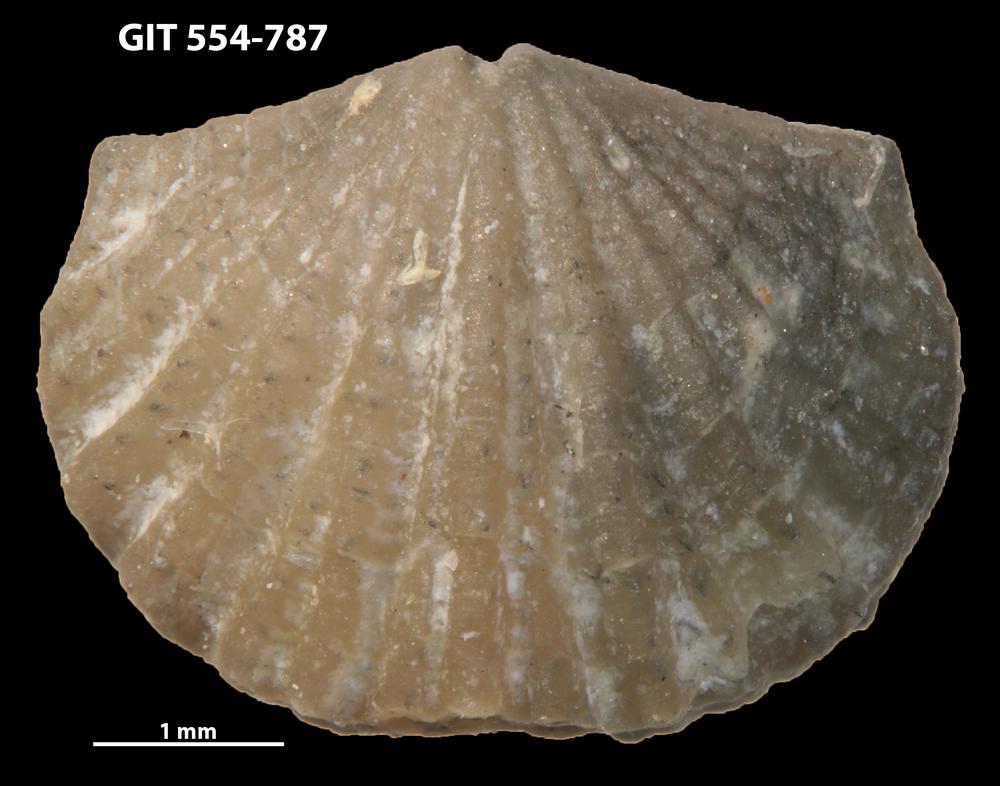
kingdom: Animalia
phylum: Brachiopoda
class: Rhynchonellata
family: Hesperorthidae
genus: Ptychopleurella
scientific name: Ptychopleurella transversa
